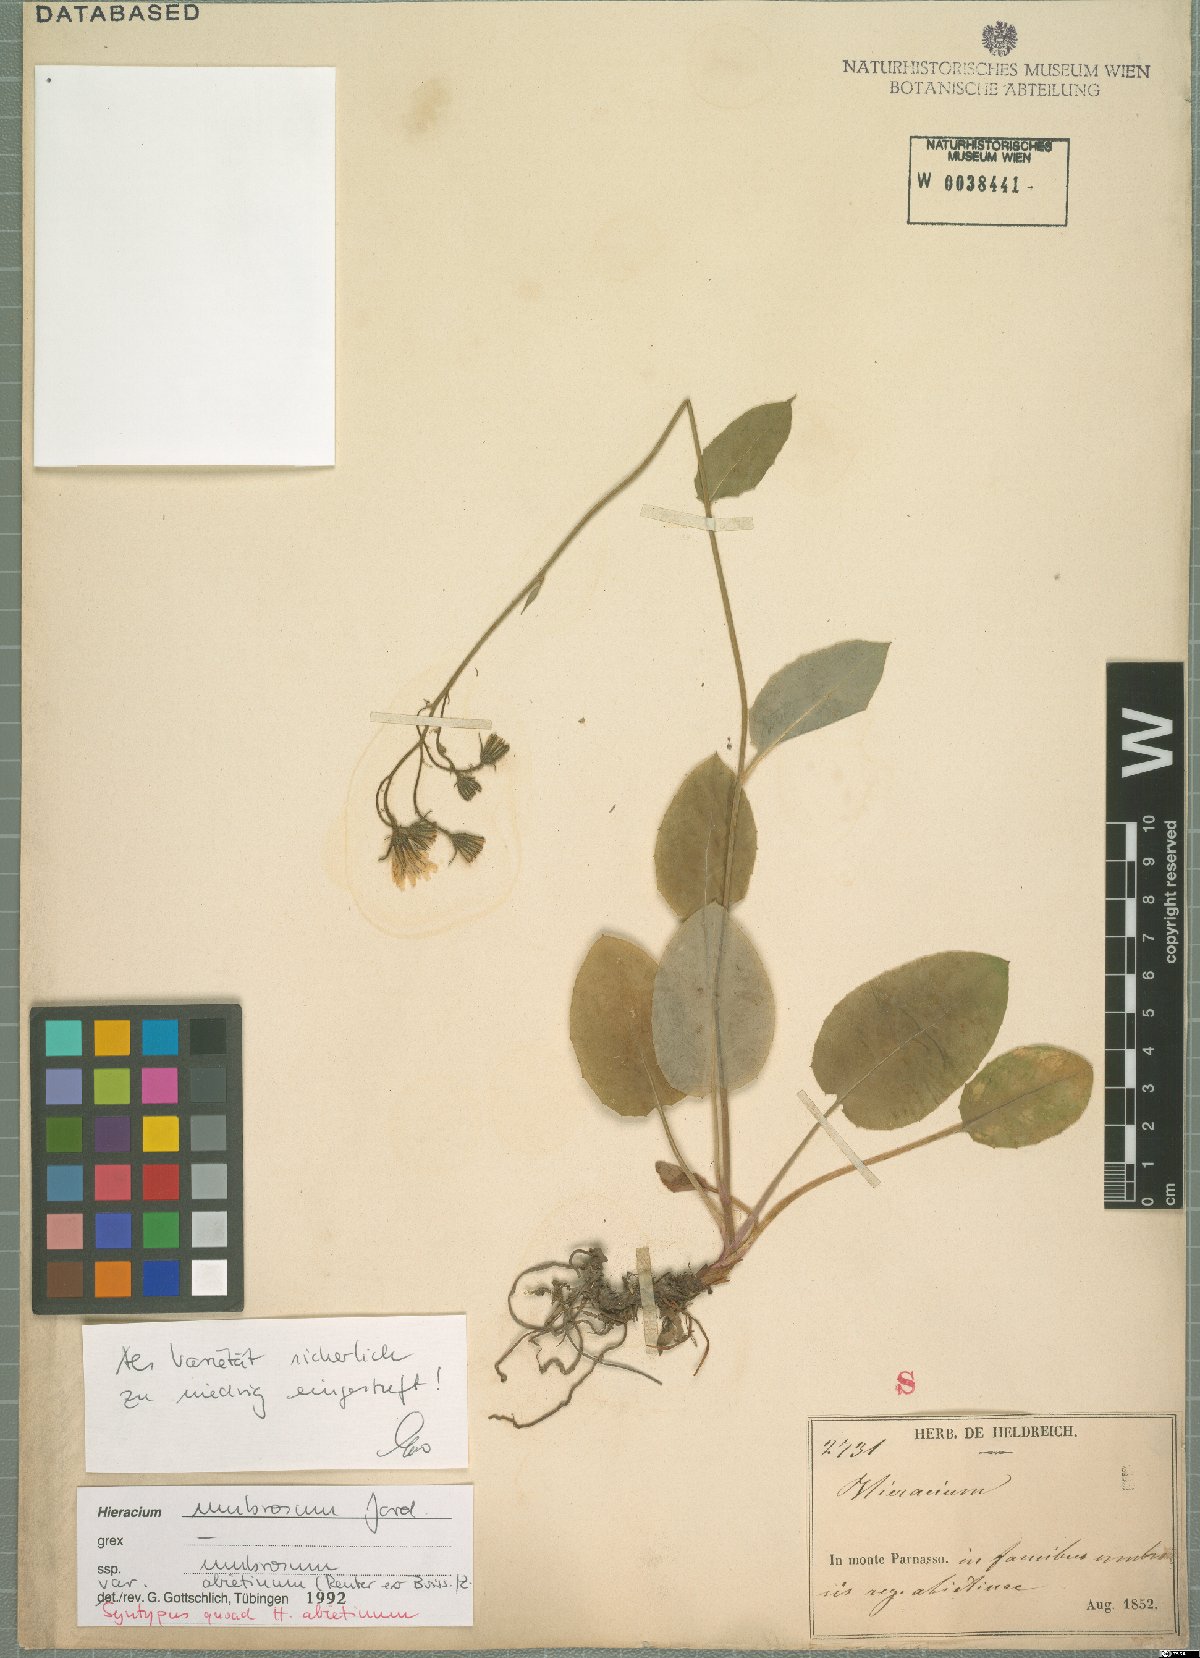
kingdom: Plantae
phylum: Tracheophyta
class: Magnoliopsida
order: Asterales
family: Asteraceae
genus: Hieracium
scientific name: Hieracium umbrosum
